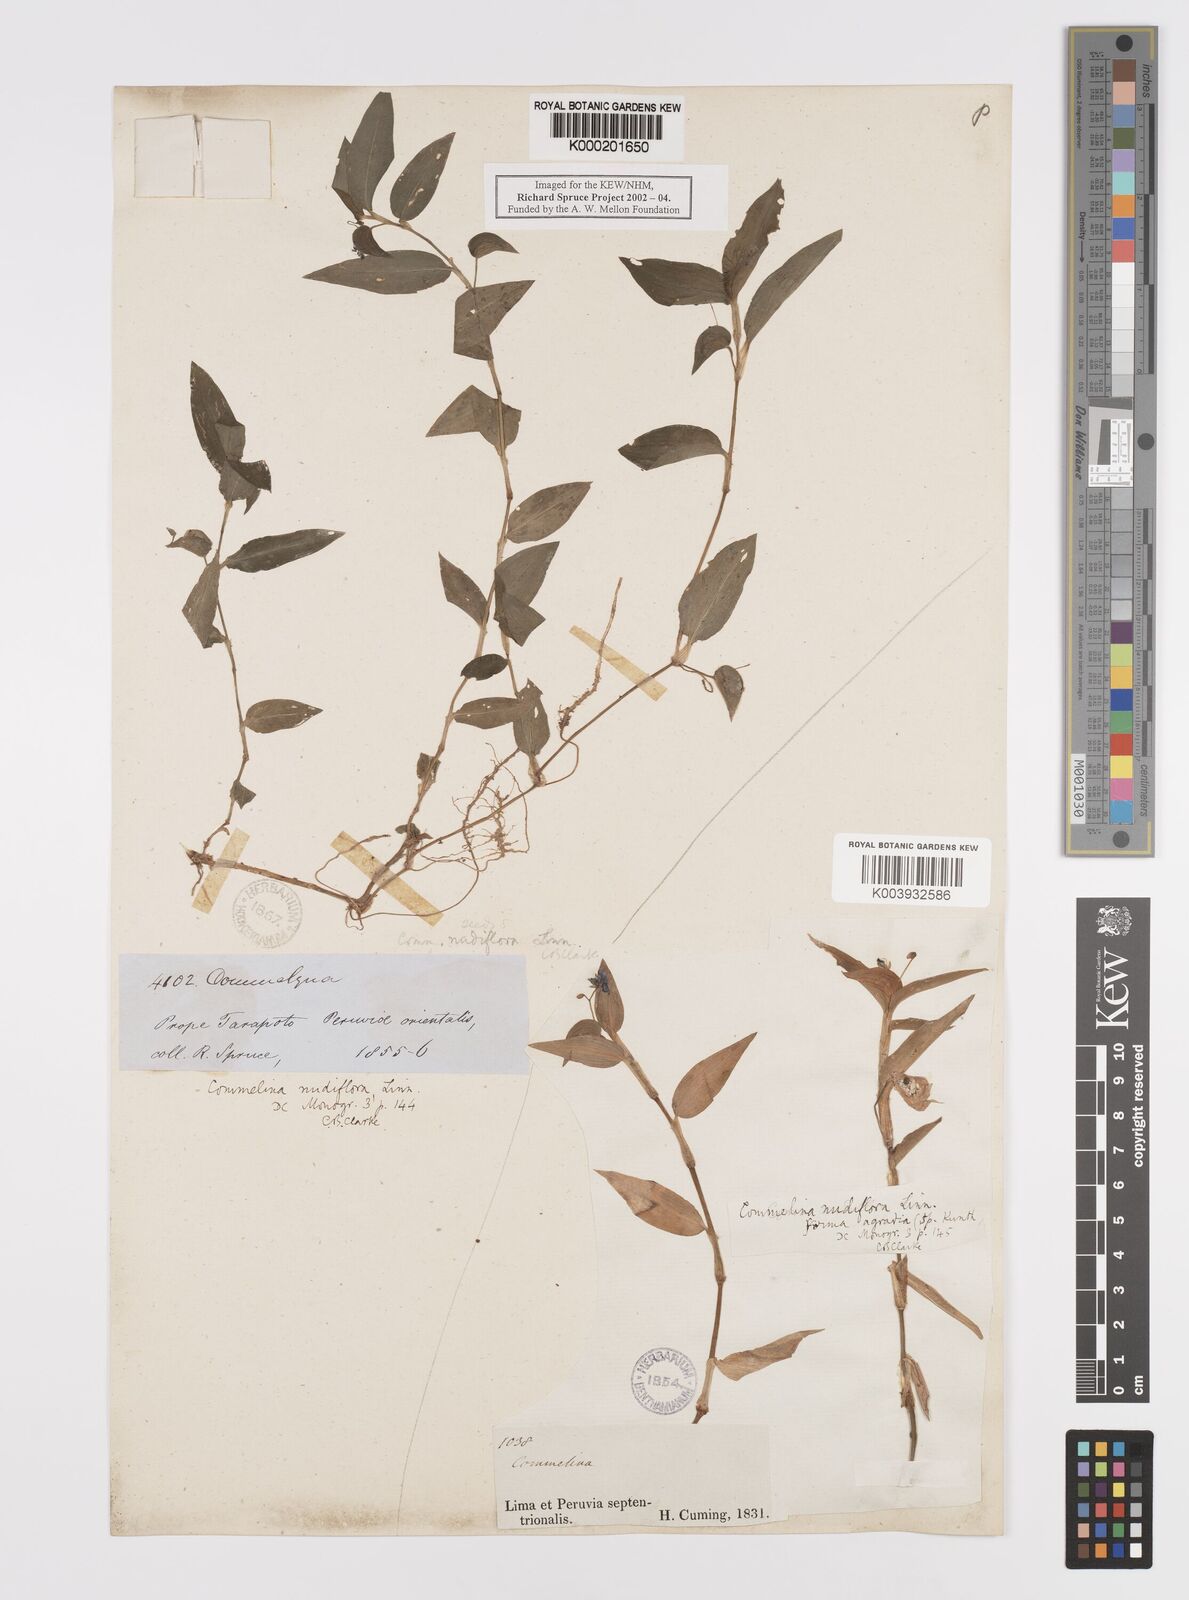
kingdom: Plantae
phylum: Tracheophyta
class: Liliopsida
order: Commelinales
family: Commelinaceae
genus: Commelina
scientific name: Commelina diffusa
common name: Climbing dayflower
